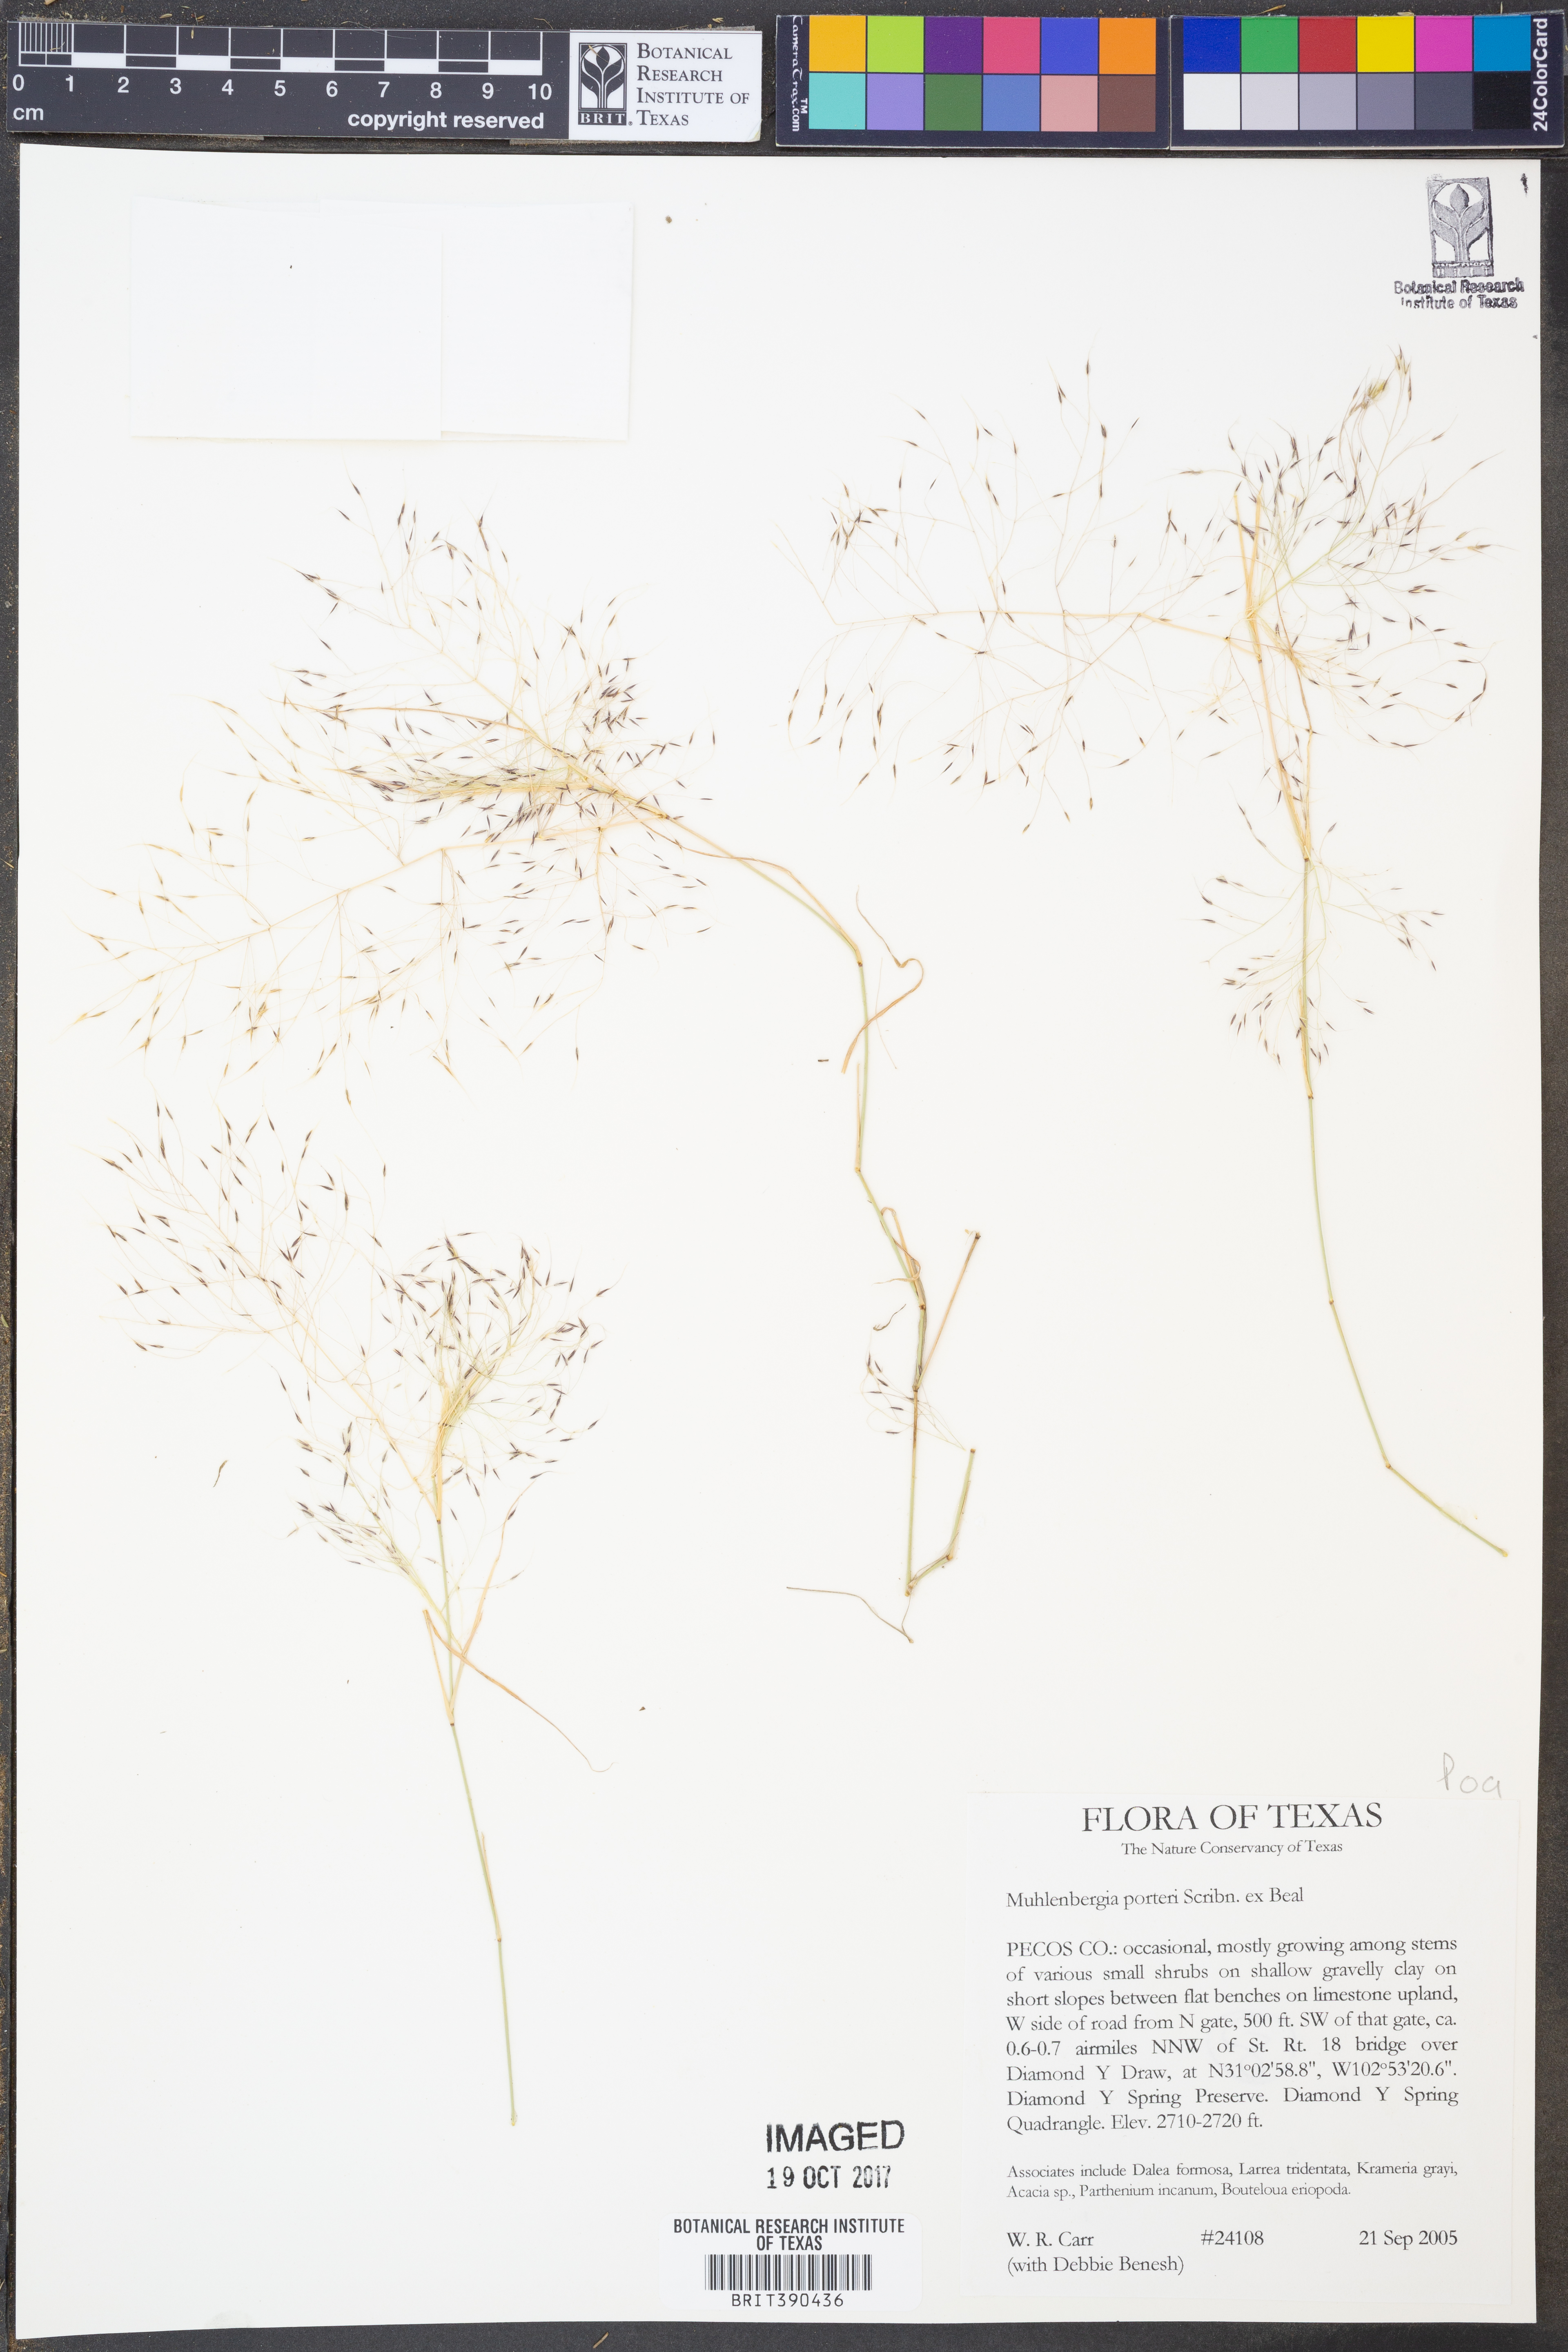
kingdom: Plantae
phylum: Tracheophyta
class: Liliopsida
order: Poales
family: Poaceae
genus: Muhlenbergia
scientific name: Muhlenbergia porteri
